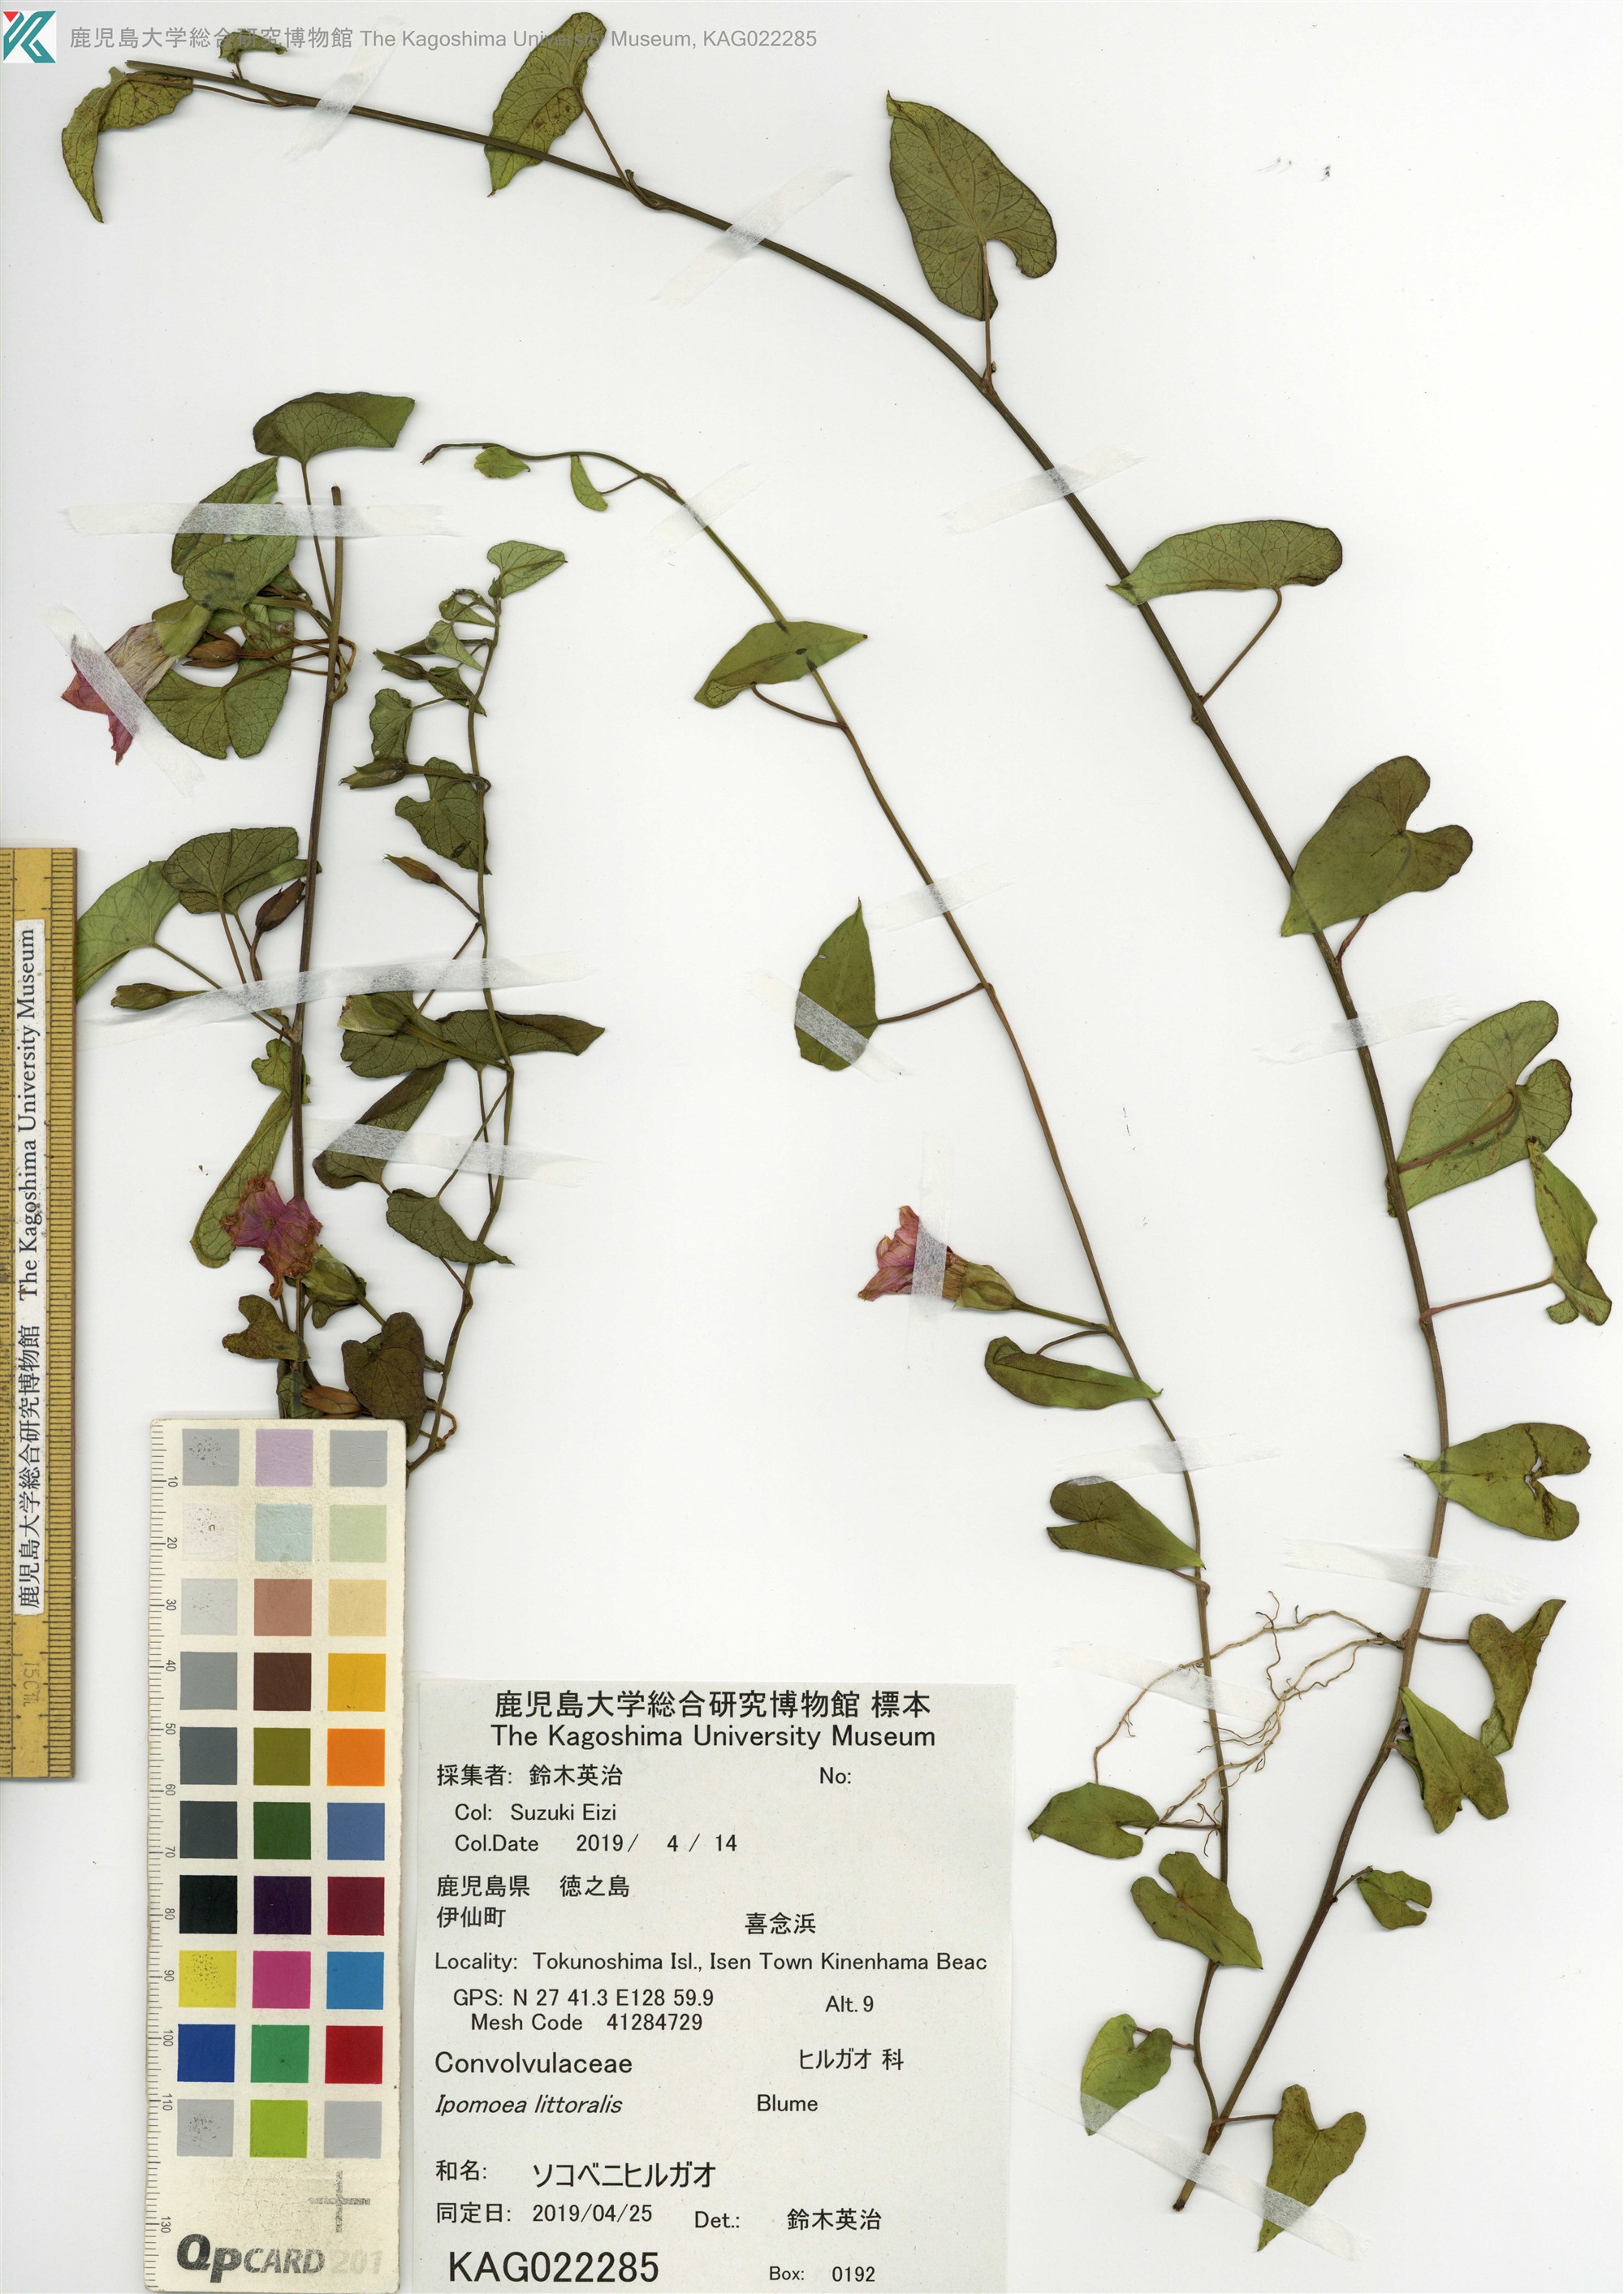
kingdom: Plantae
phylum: Tracheophyta
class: Magnoliopsida
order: Solanales
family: Convolvulaceae
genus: Ipomoea
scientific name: Ipomoea littoralis
